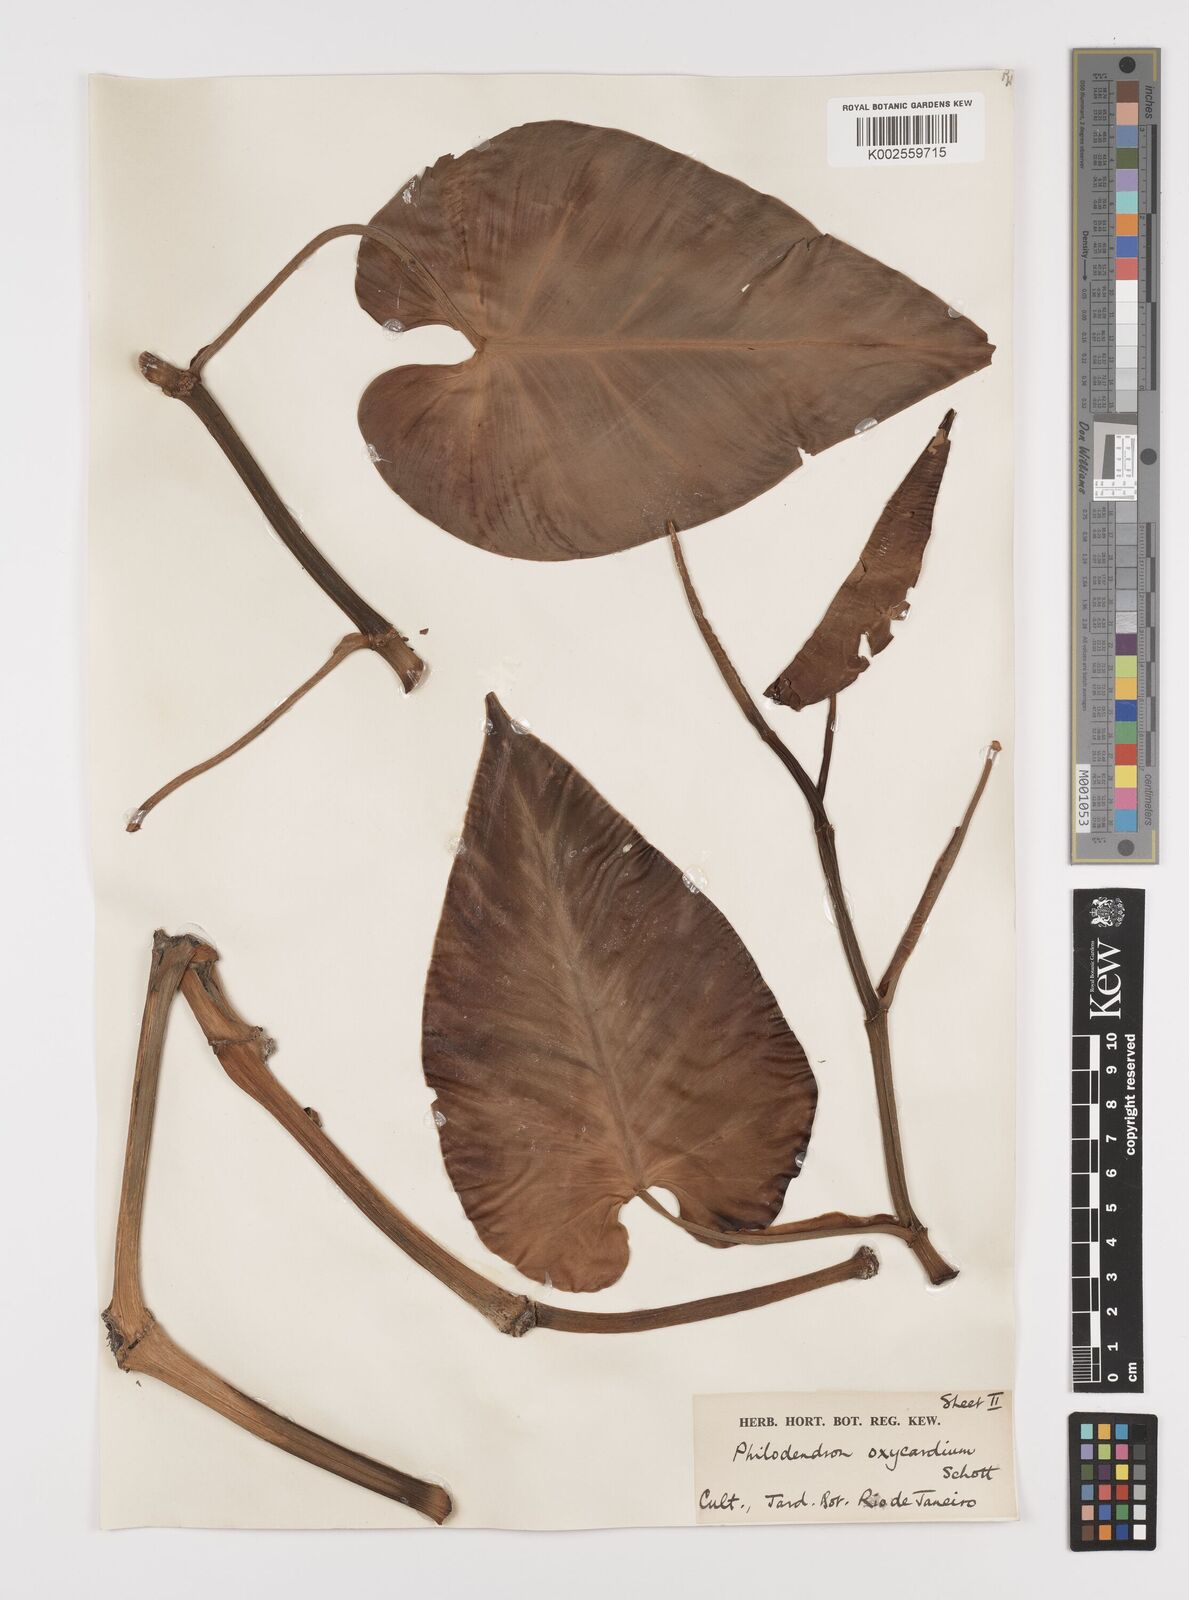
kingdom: Plantae
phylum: Tracheophyta
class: Liliopsida
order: Alismatales
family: Araceae
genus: Philodendron
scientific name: Philodendron hederaceum
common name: Vilevine
